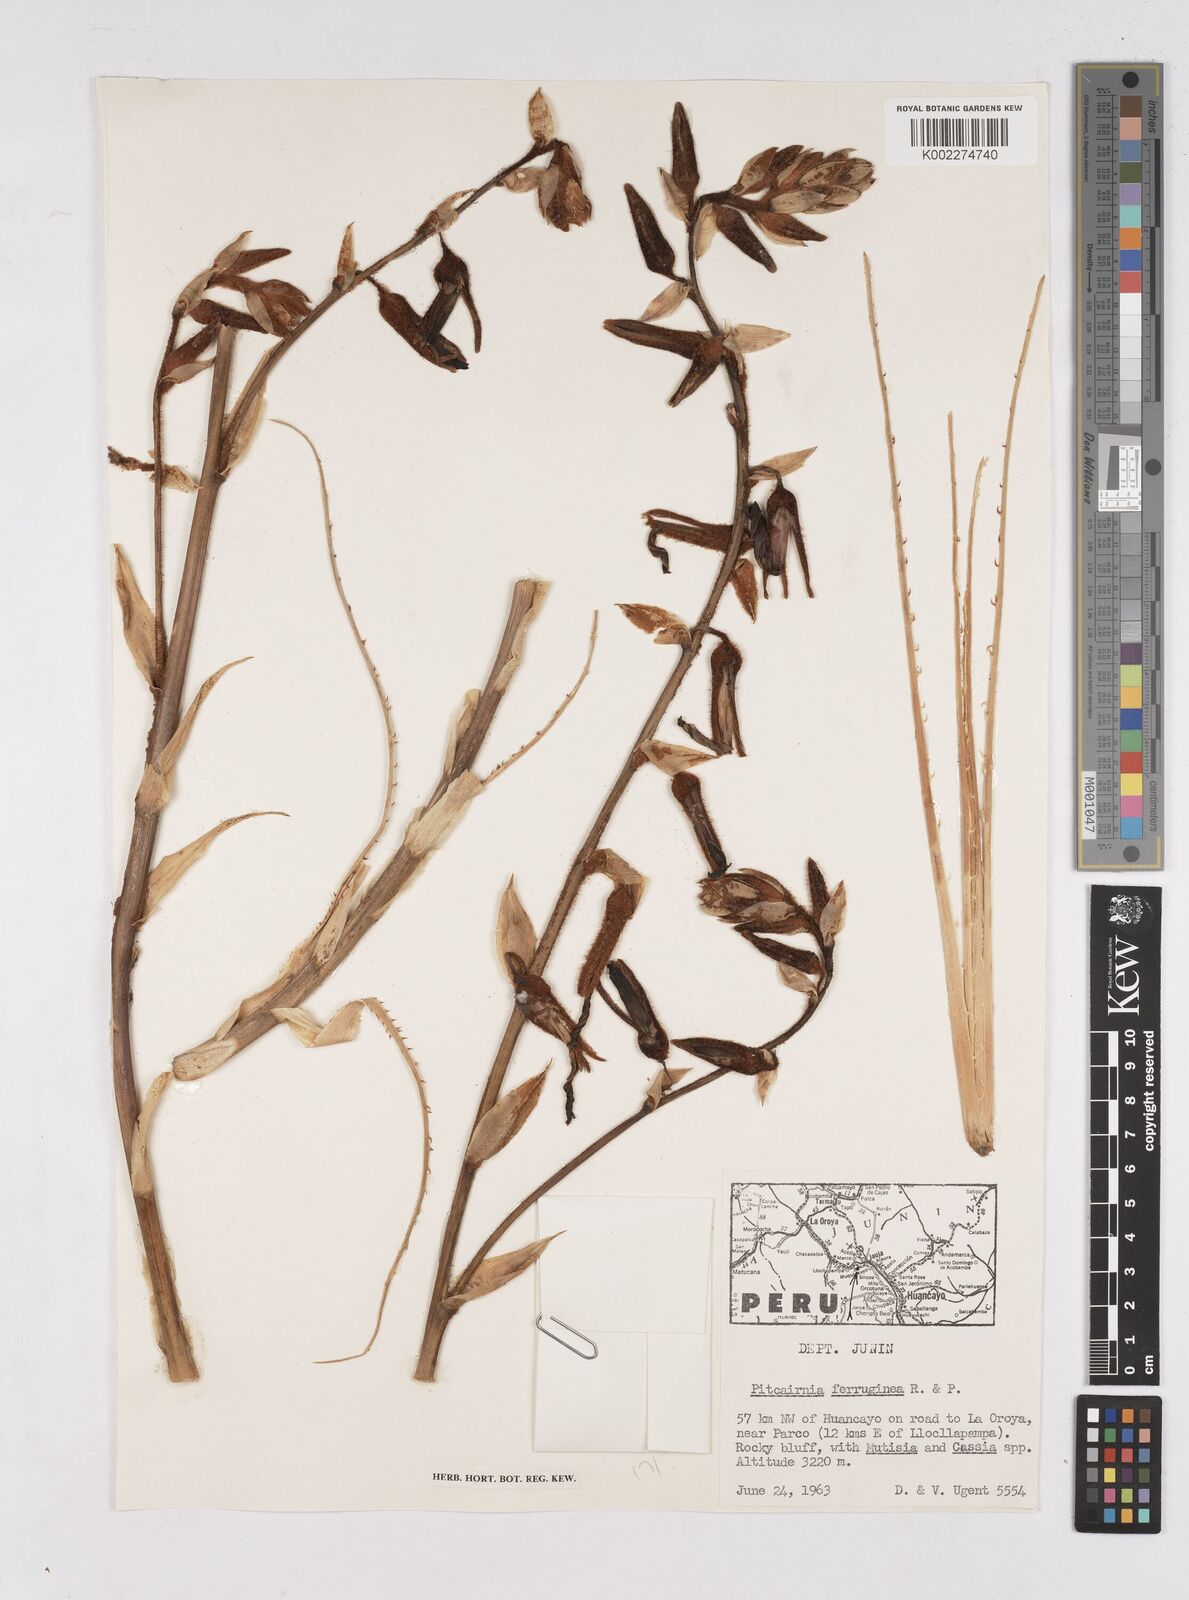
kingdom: Plantae
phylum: Tracheophyta
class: Liliopsida
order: Poales
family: Bromeliaceae
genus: Puya
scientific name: Puya ferruginea
